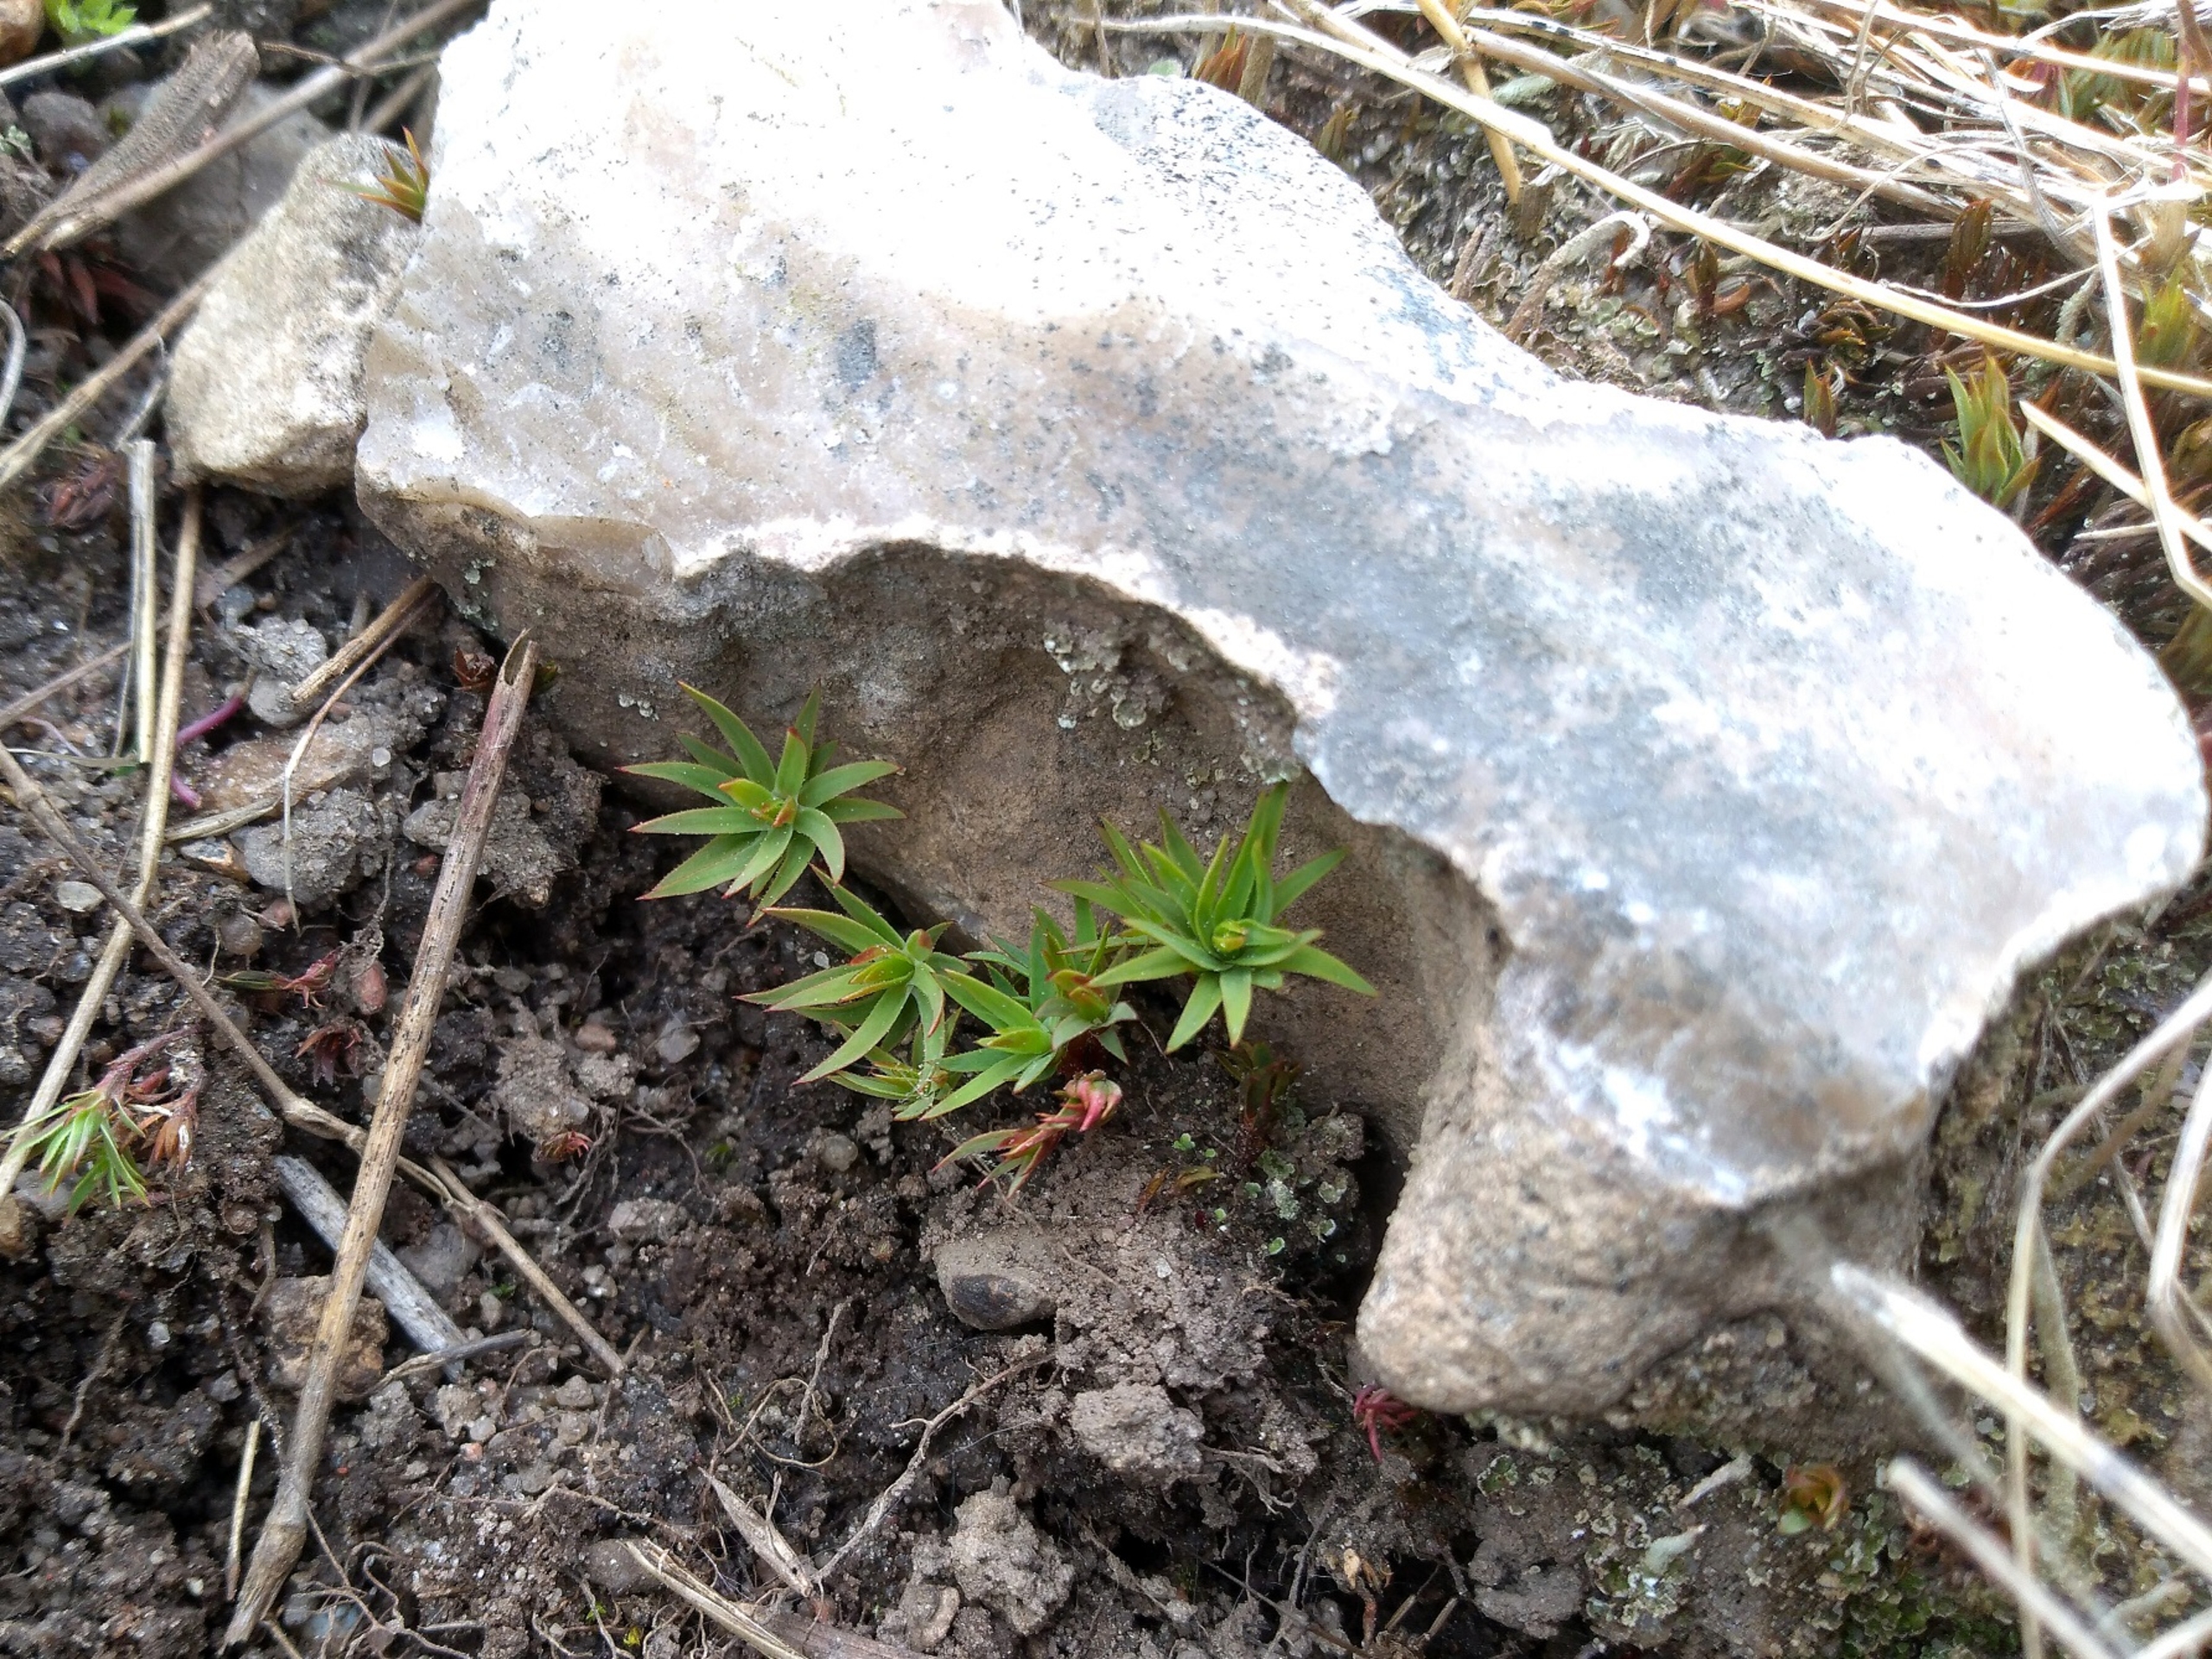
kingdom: Plantae
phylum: Bryophyta
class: Polytrichopsida
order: Polytrichales
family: Polytrichaceae
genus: Pogonatum
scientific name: Pogonatum urnigerum
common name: Stor urnekapsel
